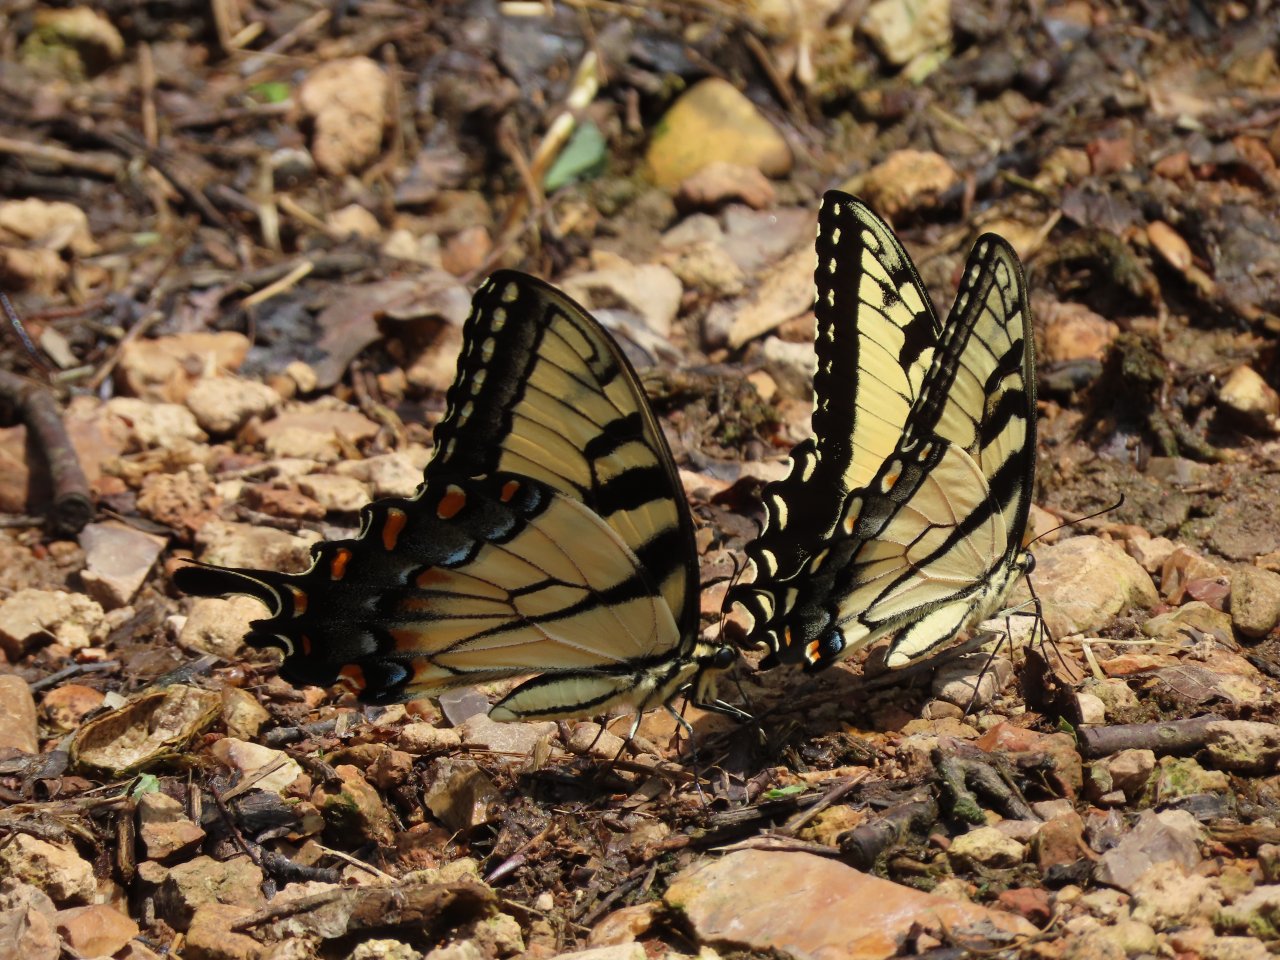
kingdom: Animalia
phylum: Arthropoda
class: Insecta
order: Lepidoptera
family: Papilionidae
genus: Pterourus
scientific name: Pterourus glaucus
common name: Eastern Tiger Swallowtail
